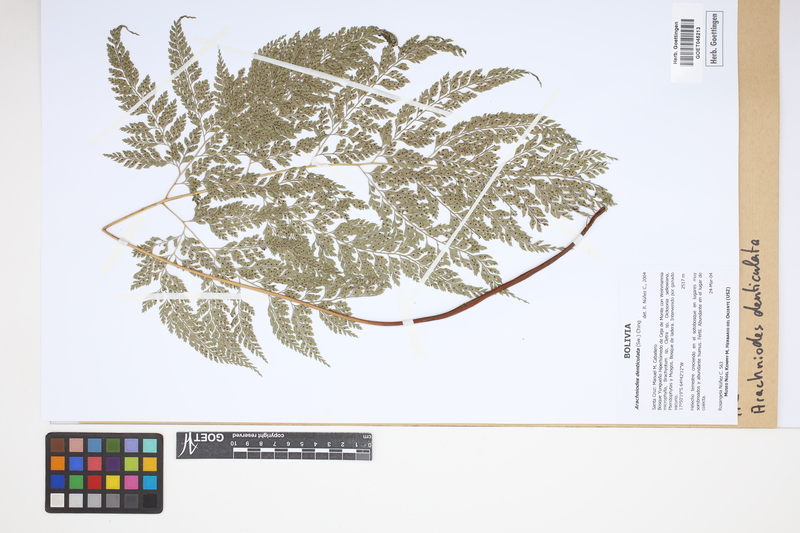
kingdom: Plantae
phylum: Tracheophyta
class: Polypodiopsida
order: Polypodiales
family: Dryopteridaceae
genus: Arachniodes
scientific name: Arachniodes denticulata
